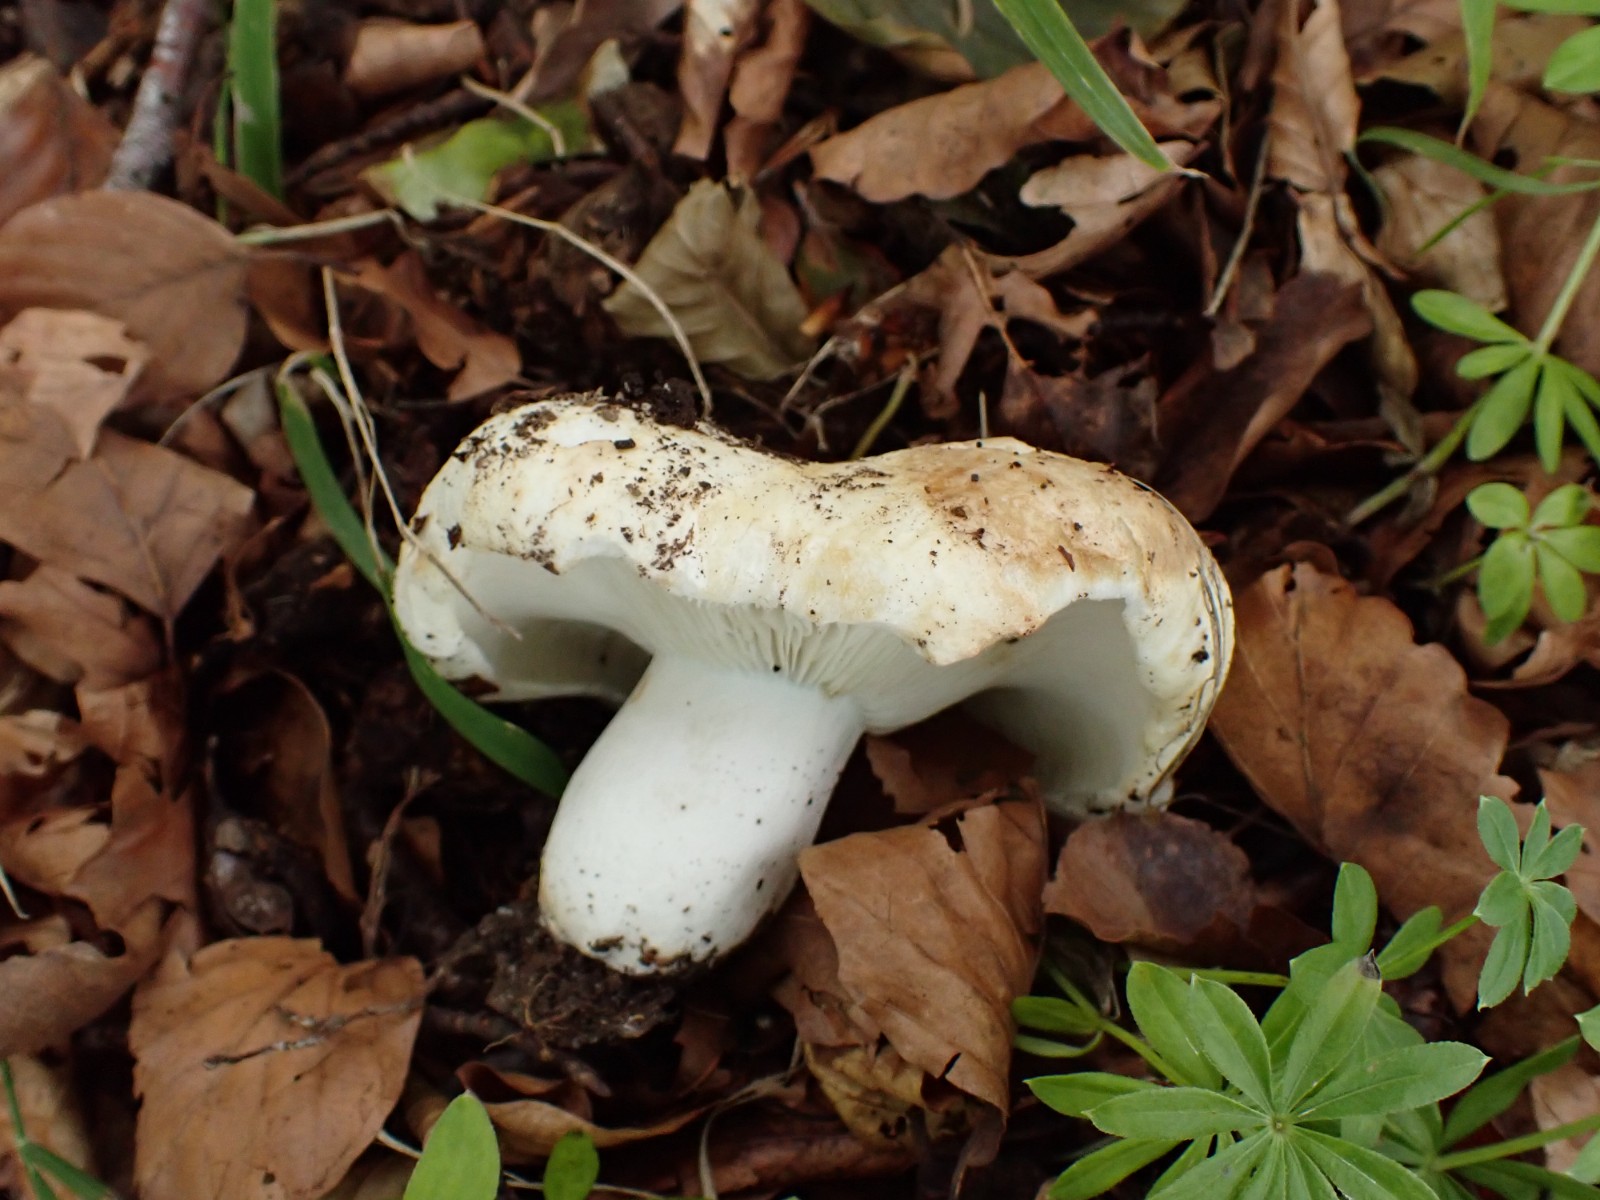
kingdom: Fungi
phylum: Basidiomycota
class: Agaricomycetes
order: Russulales
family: Russulaceae
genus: Russula
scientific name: Russula chloroides
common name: grønhalset tragt-skørhat
